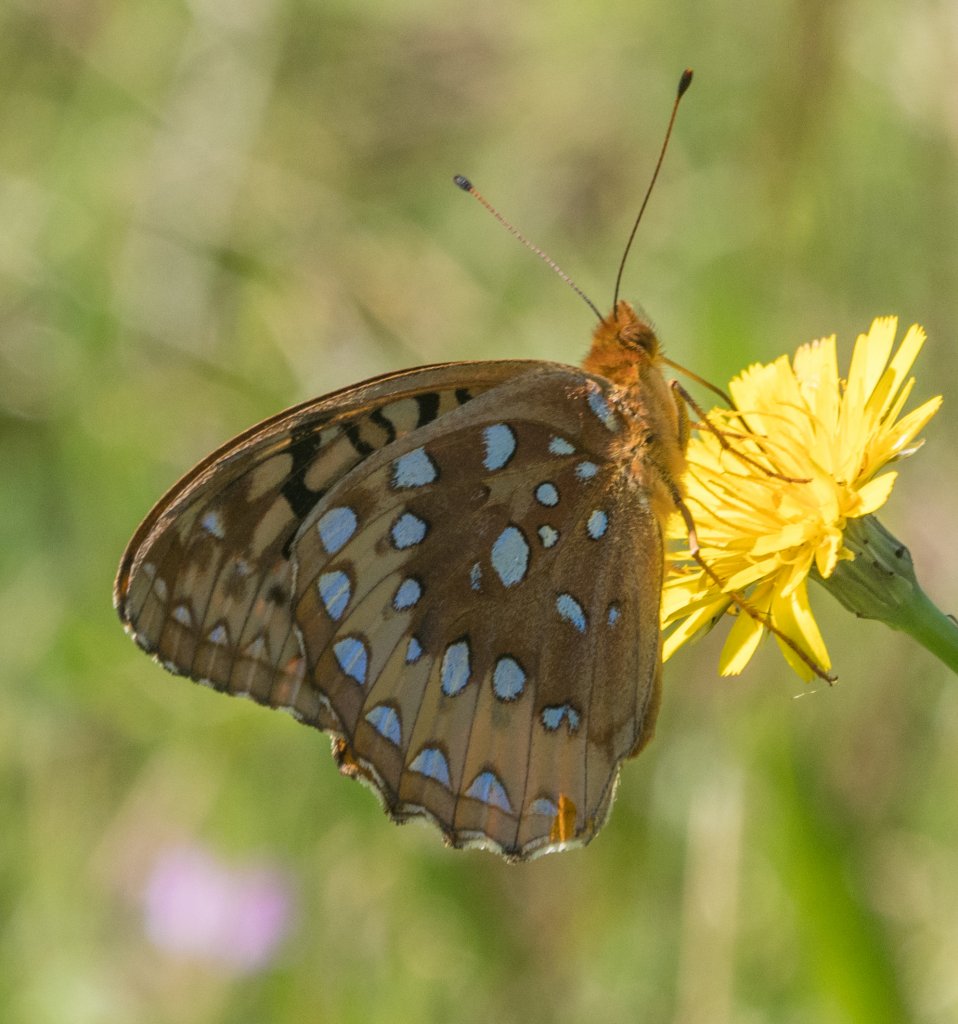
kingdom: Animalia
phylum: Arthropoda
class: Insecta
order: Lepidoptera
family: Nymphalidae
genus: Speyeria
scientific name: Speyeria cybele
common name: Great Spangled Fritillary
